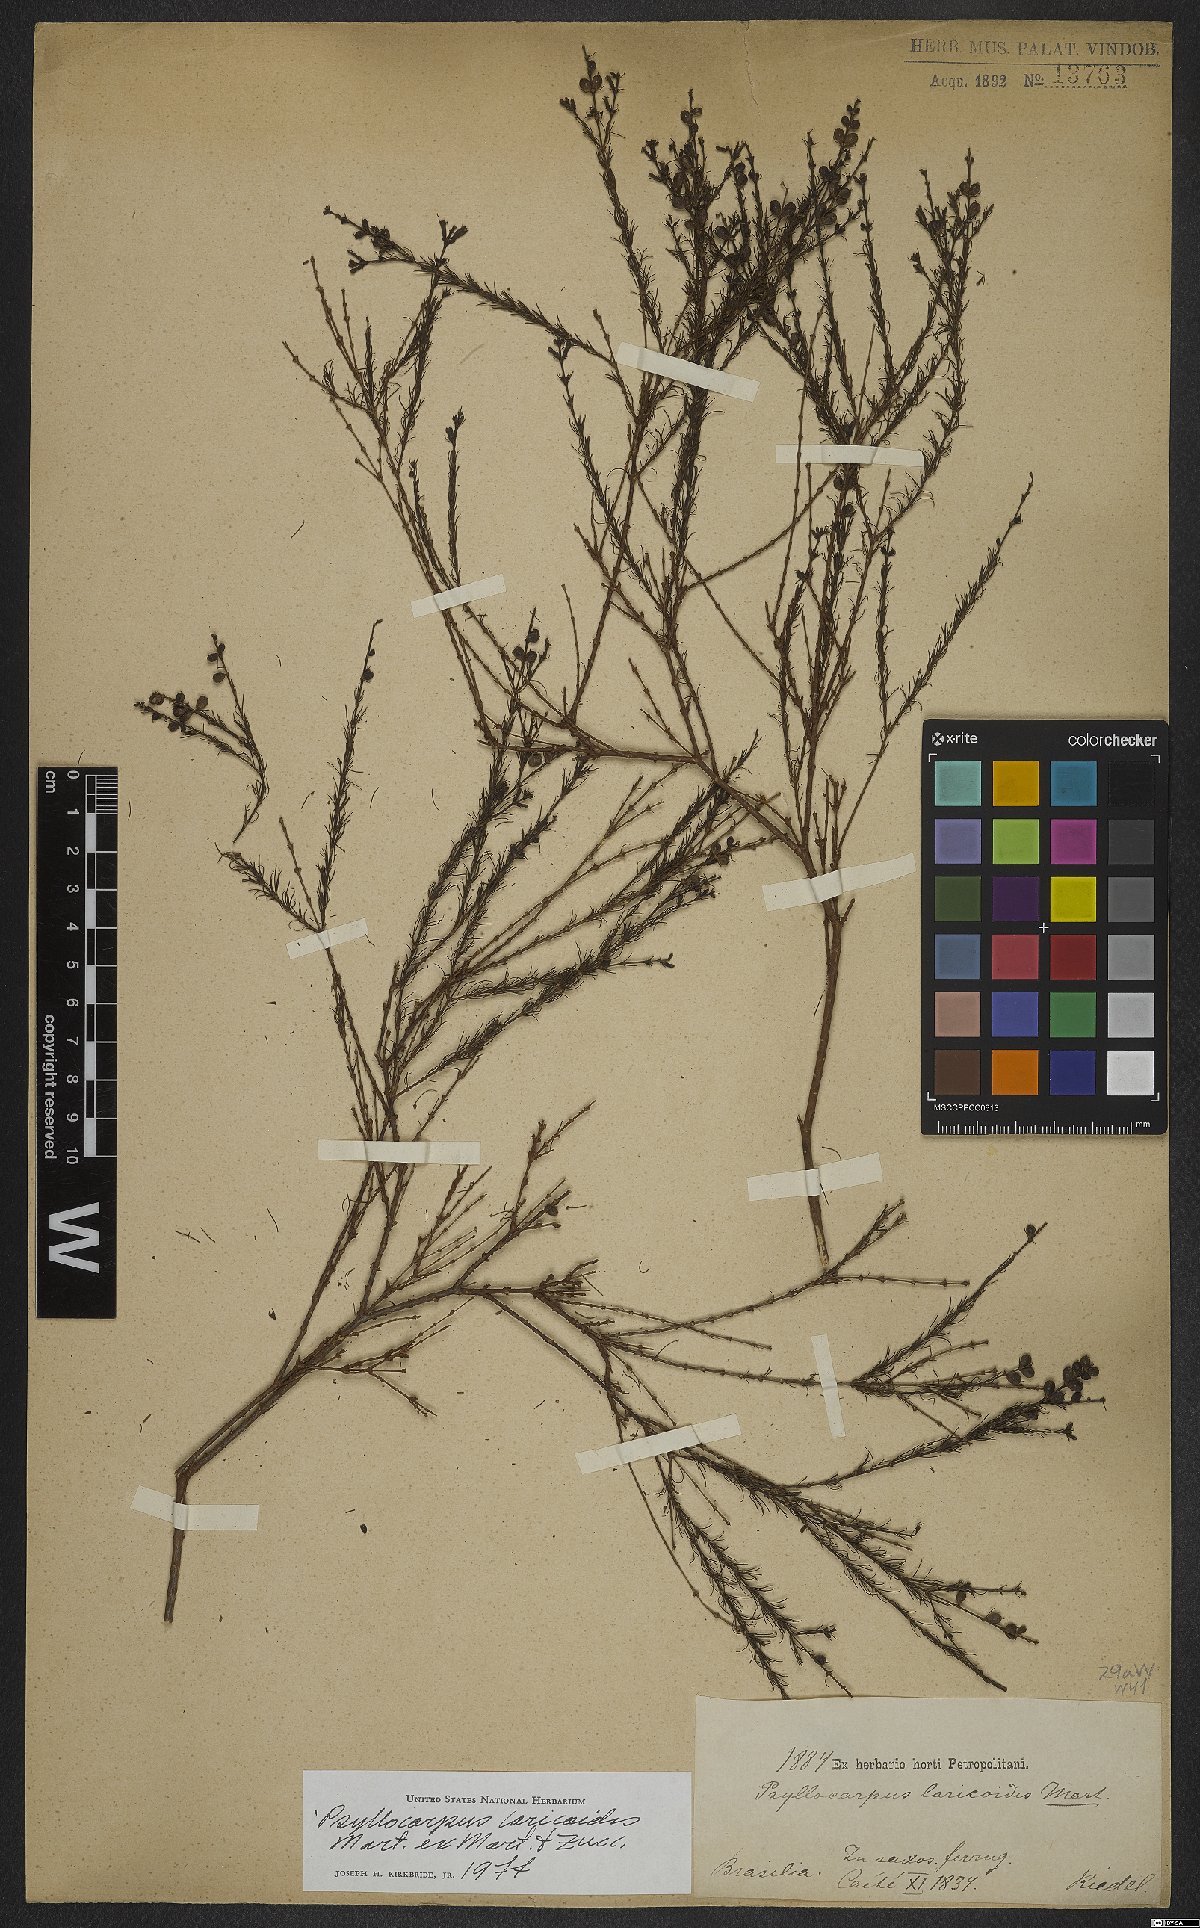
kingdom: Plantae
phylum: Tracheophyta
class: Magnoliopsida
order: Gentianales
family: Rubiaceae
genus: Psyllocarpus
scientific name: Psyllocarpus laricoides
